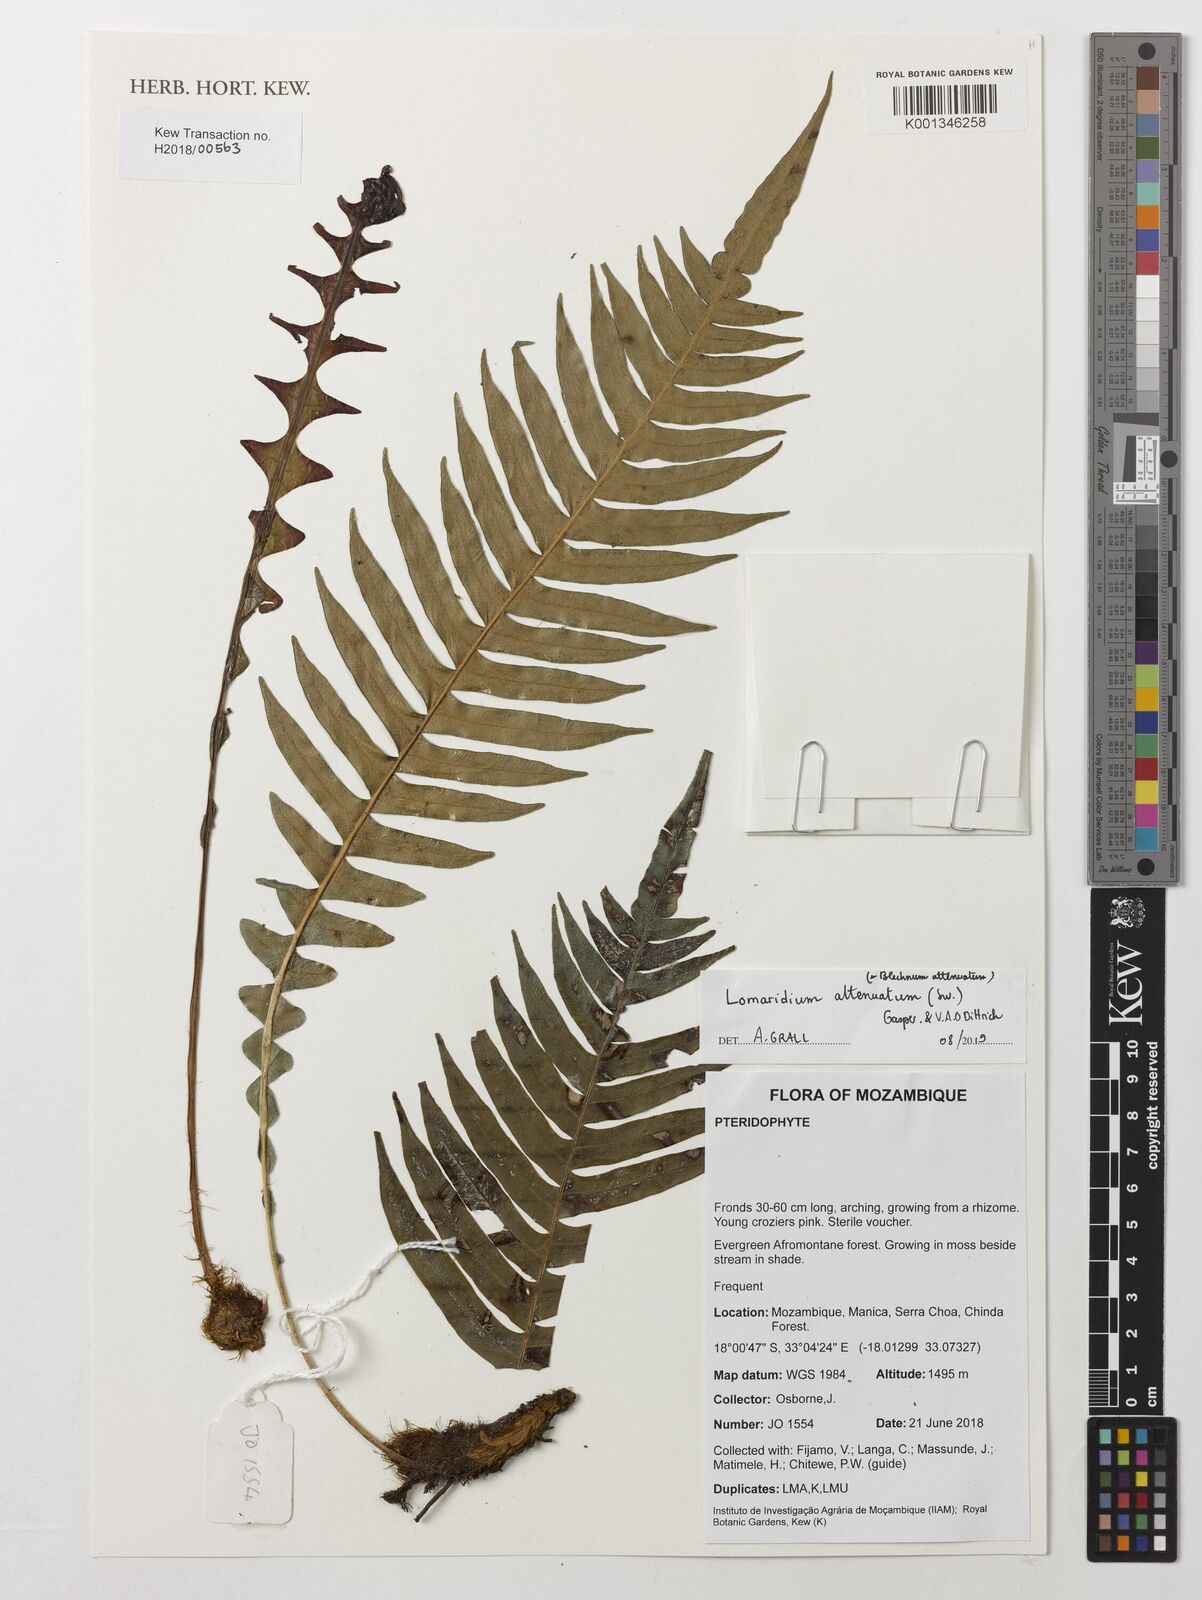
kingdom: Plantae
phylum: Tracheophyta
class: Polypodiopsida
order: Polypodiales
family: Blechnaceae
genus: Lomaridium
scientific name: Lomaridium attenuatum
